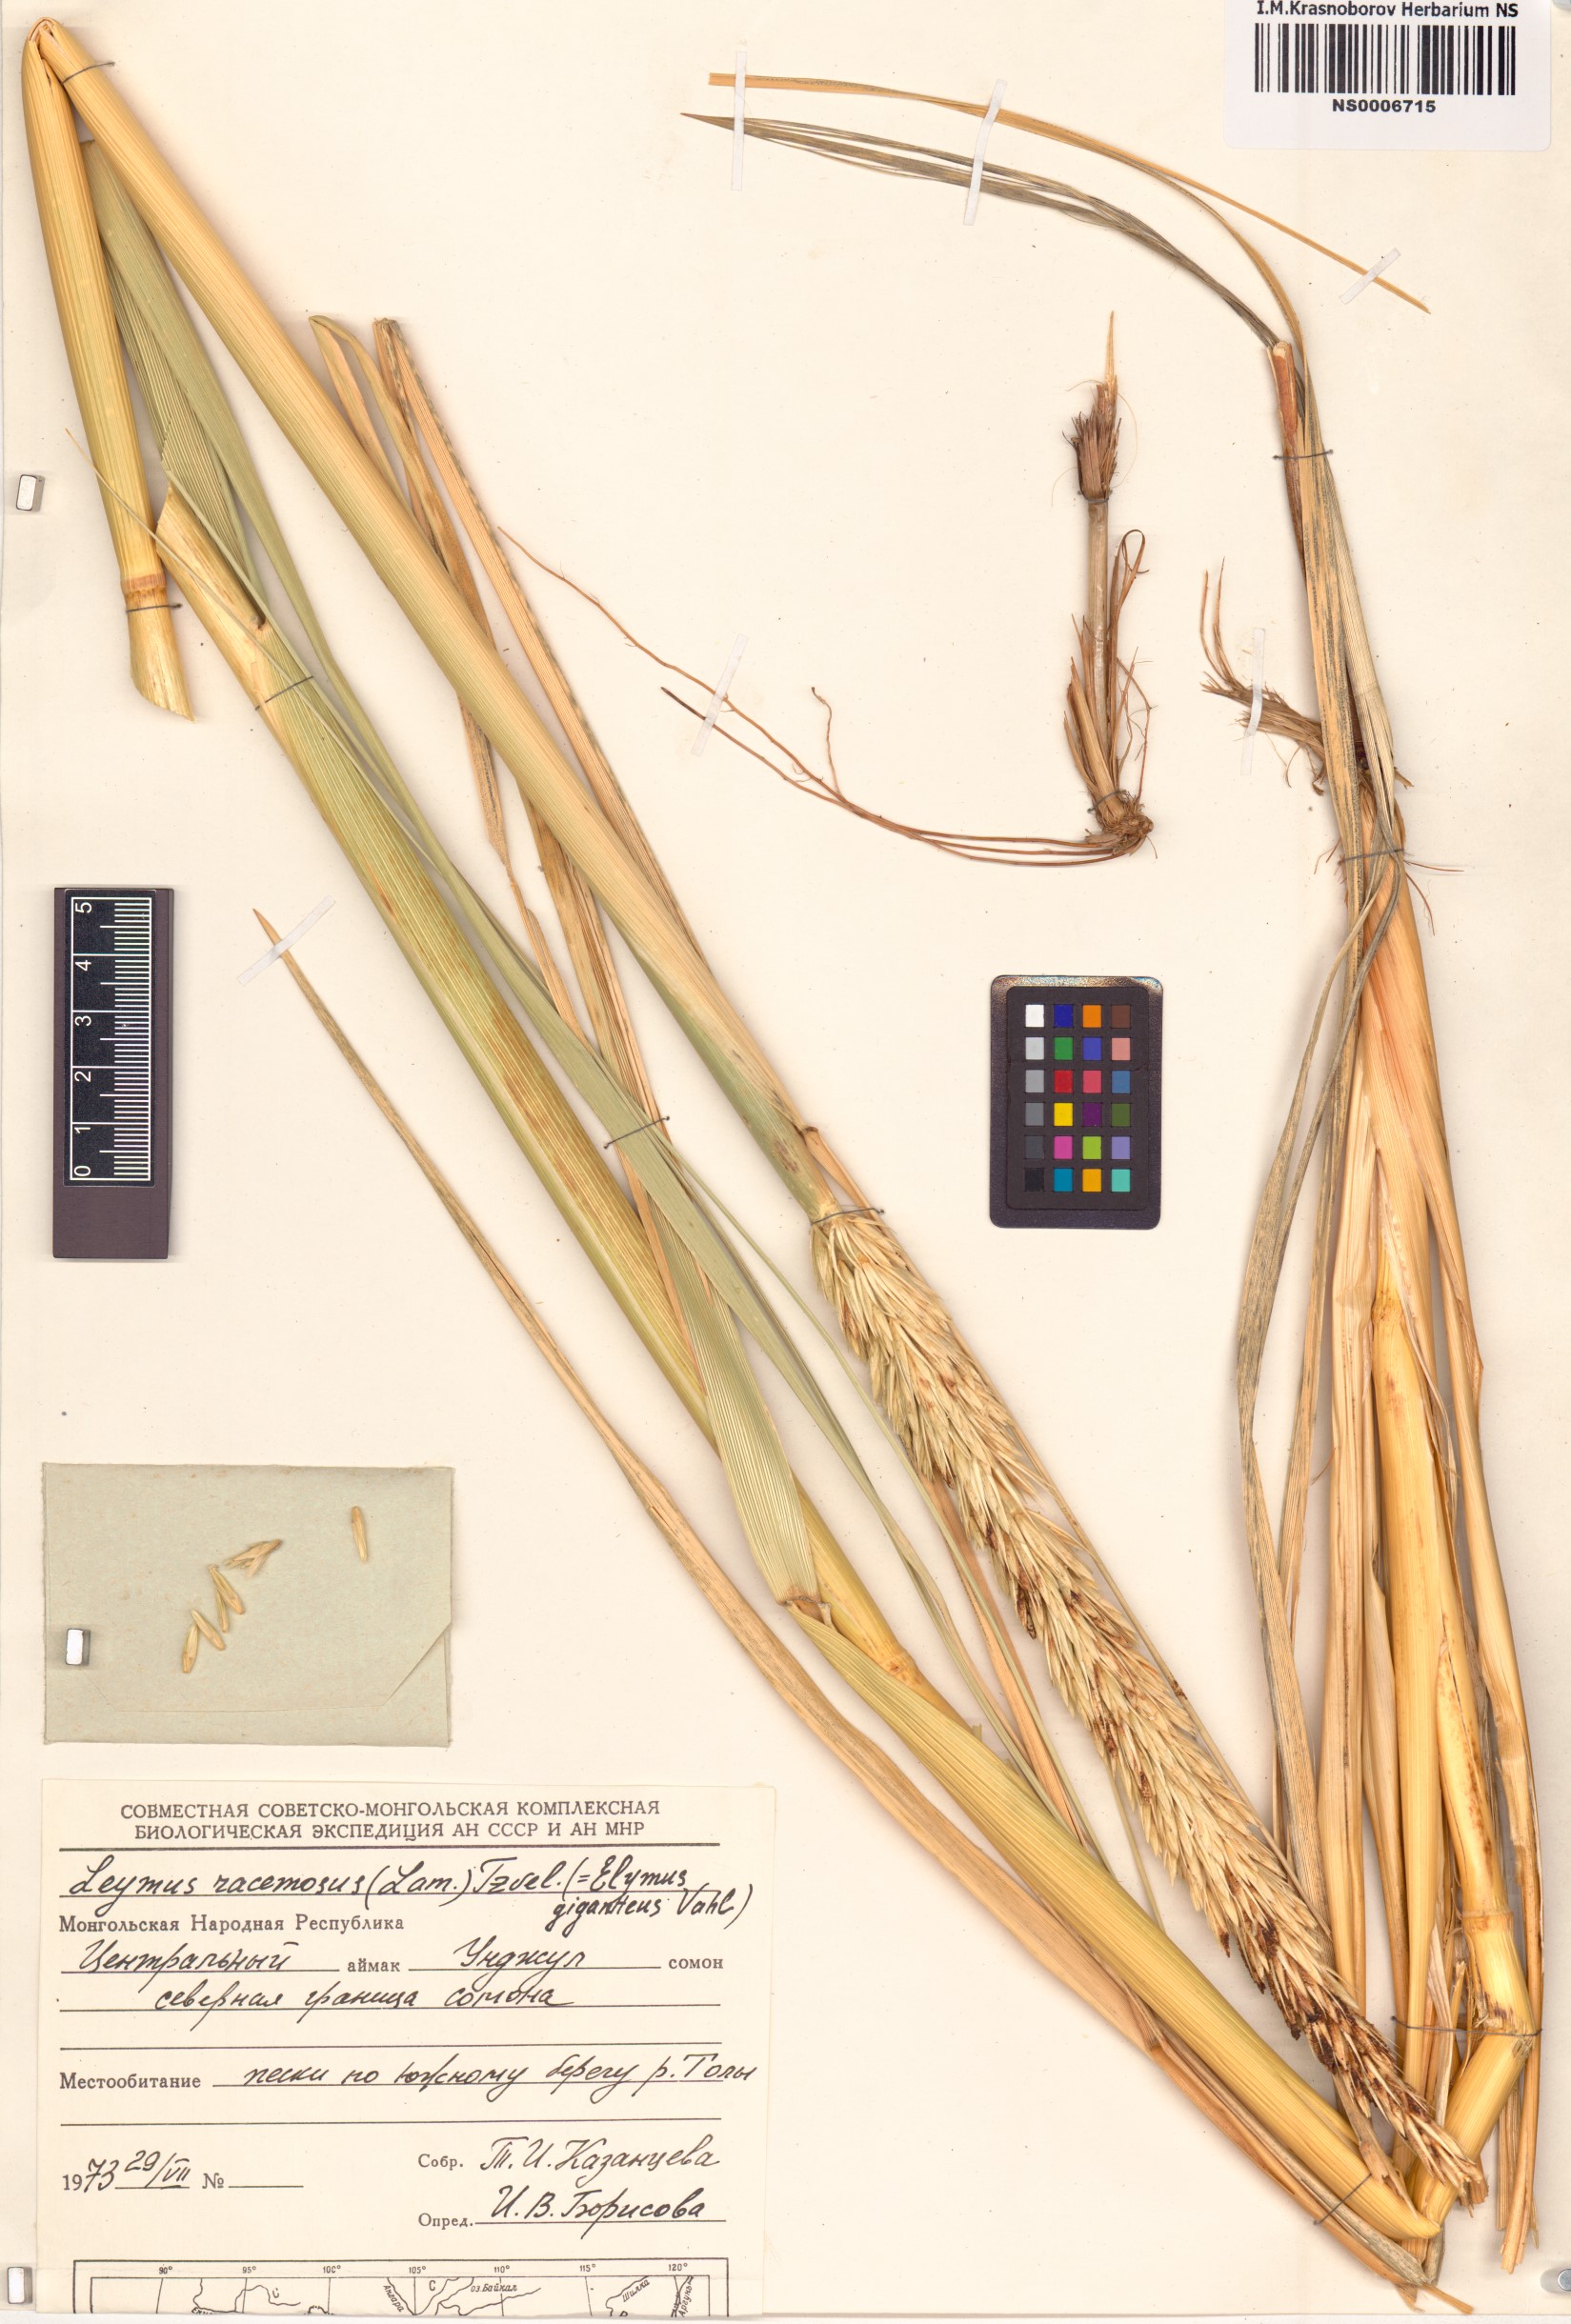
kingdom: Plantae
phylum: Tracheophyta
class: Liliopsida
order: Poales
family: Poaceae
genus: Leymus
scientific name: Leymus racemosus
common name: Mammoth wildrye
